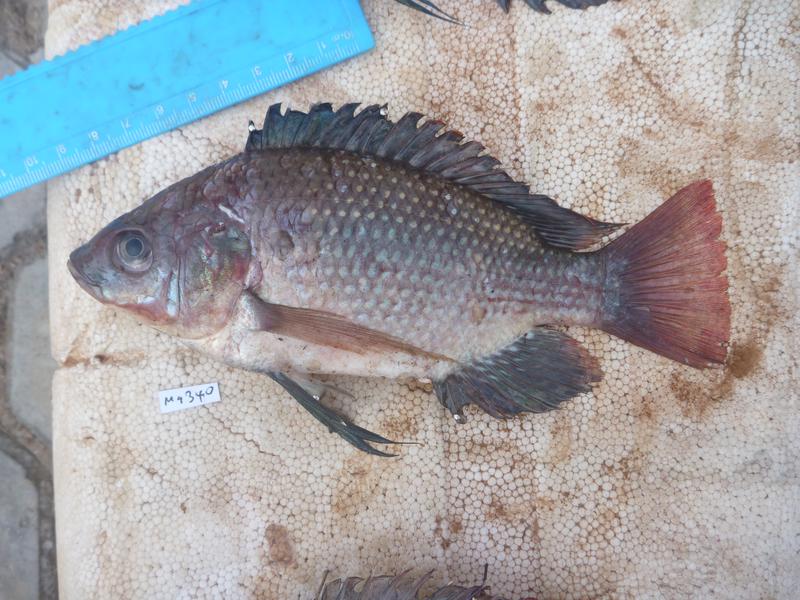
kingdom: Animalia
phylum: Chordata
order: Perciformes
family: Cichlidae
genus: Oreochromis
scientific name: Oreochromis esculentus
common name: Carp
